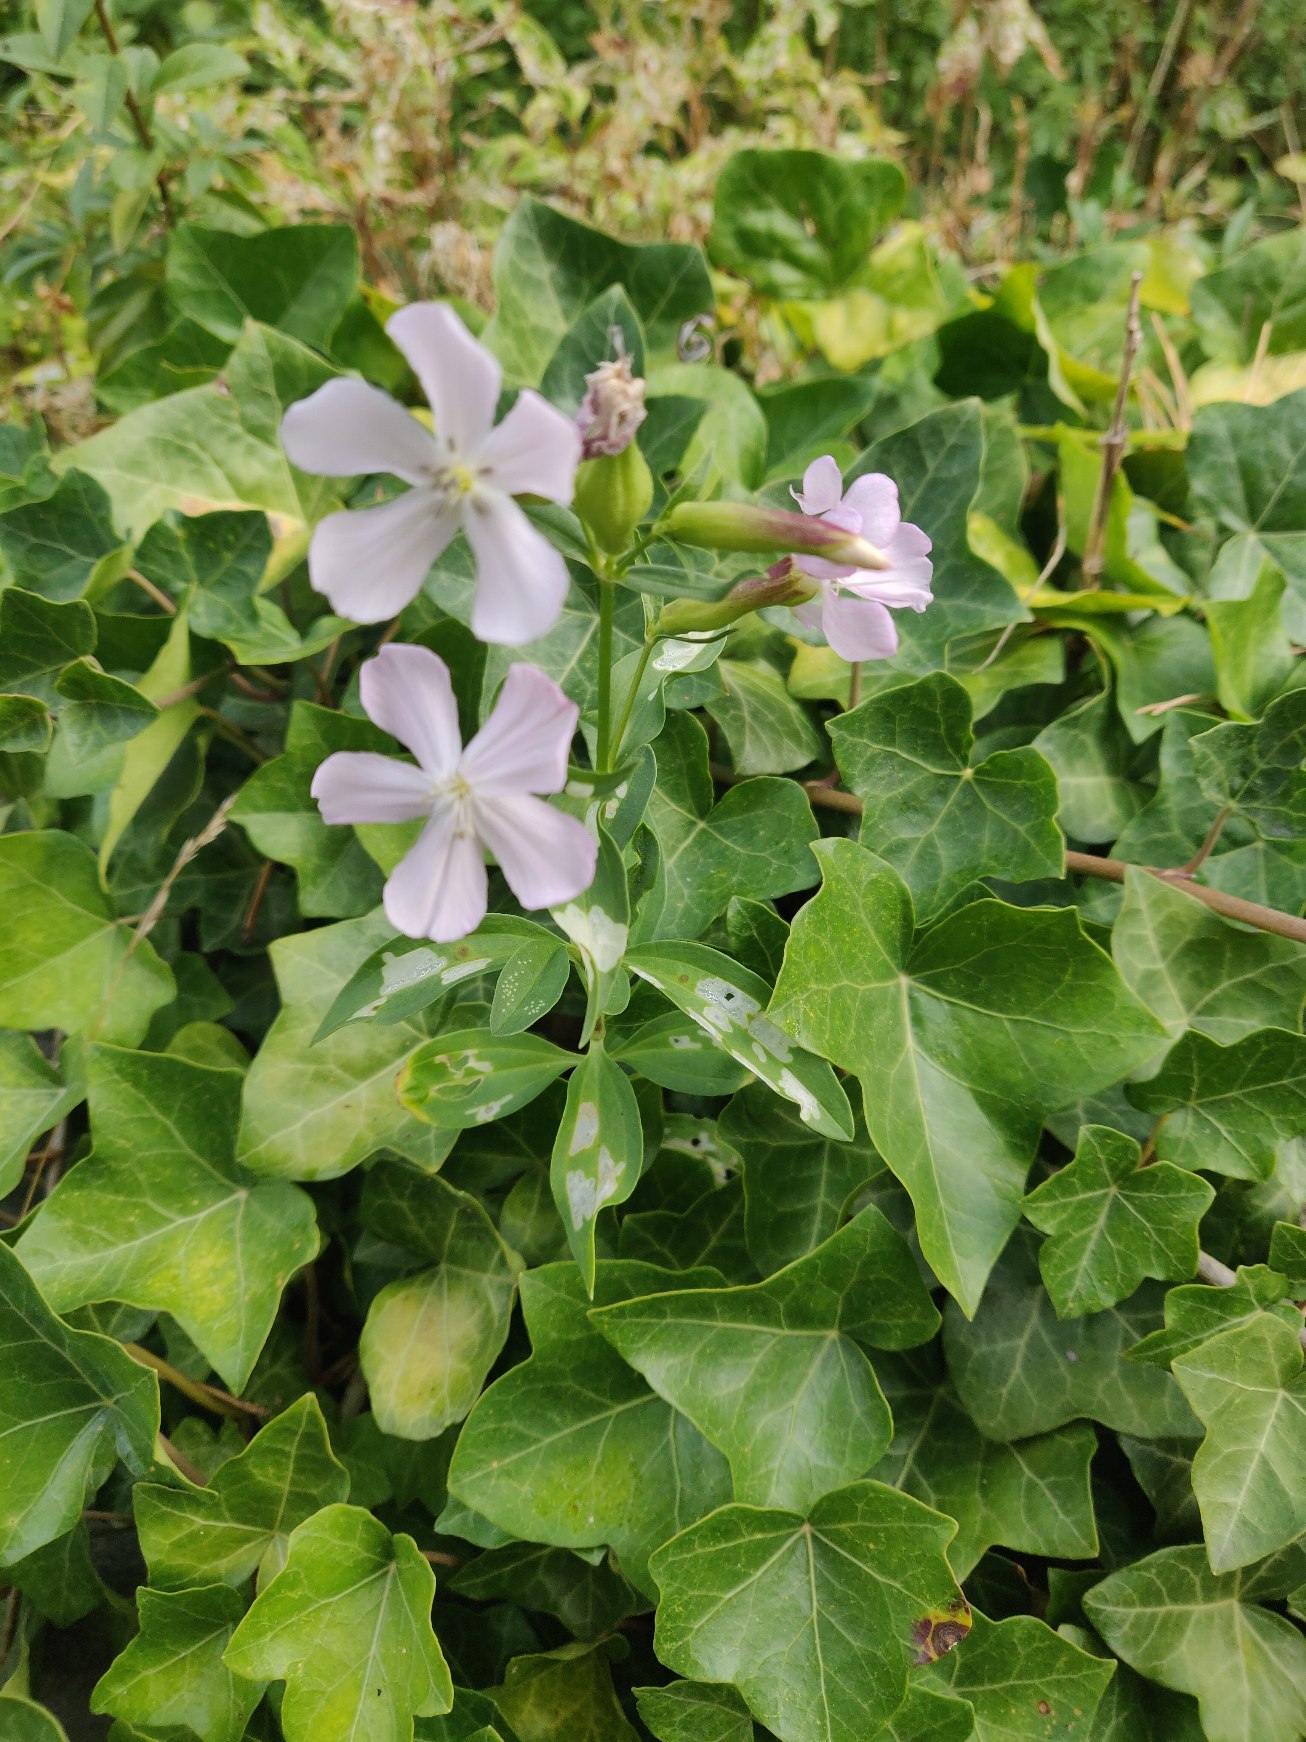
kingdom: Plantae
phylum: Tracheophyta
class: Magnoliopsida
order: Caryophyllales
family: Caryophyllaceae
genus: Saponaria
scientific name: Saponaria officinalis
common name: Sæbeurt
